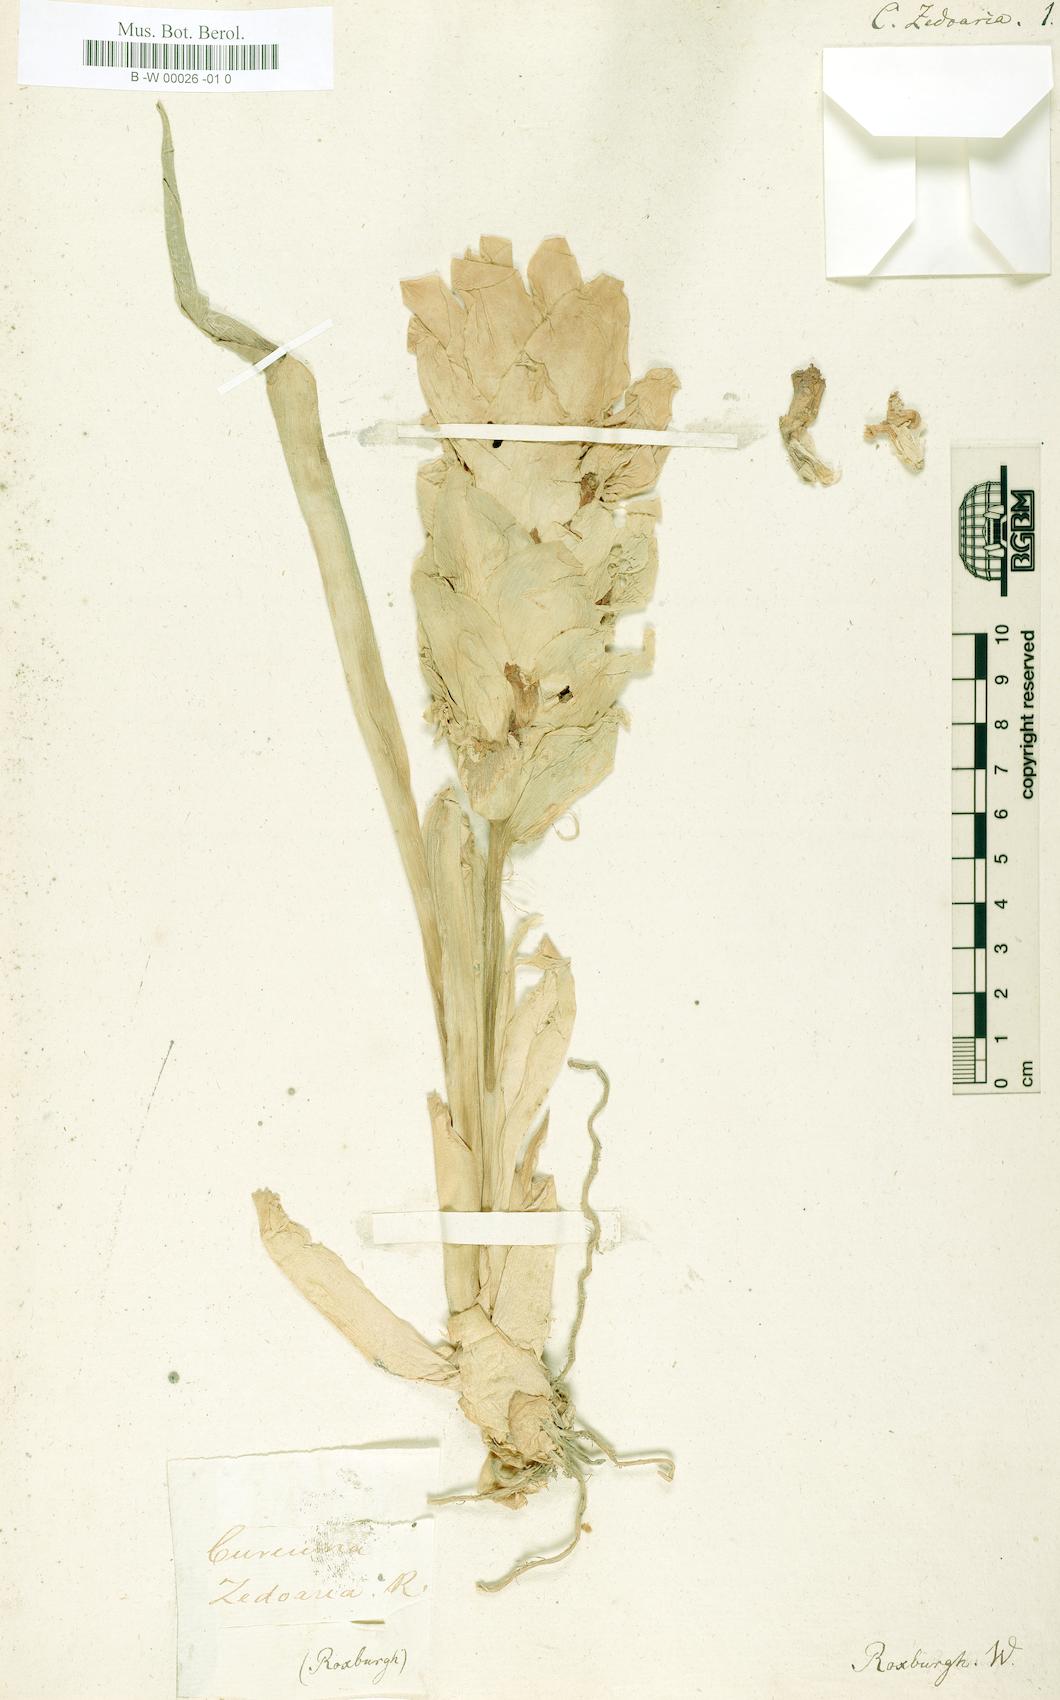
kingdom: Plantae
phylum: Tracheophyta
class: Liliopsida
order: Zingiberales
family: Zingiberaceae
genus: Curcuma
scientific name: Curcuma zedoaria
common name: Zedoary
